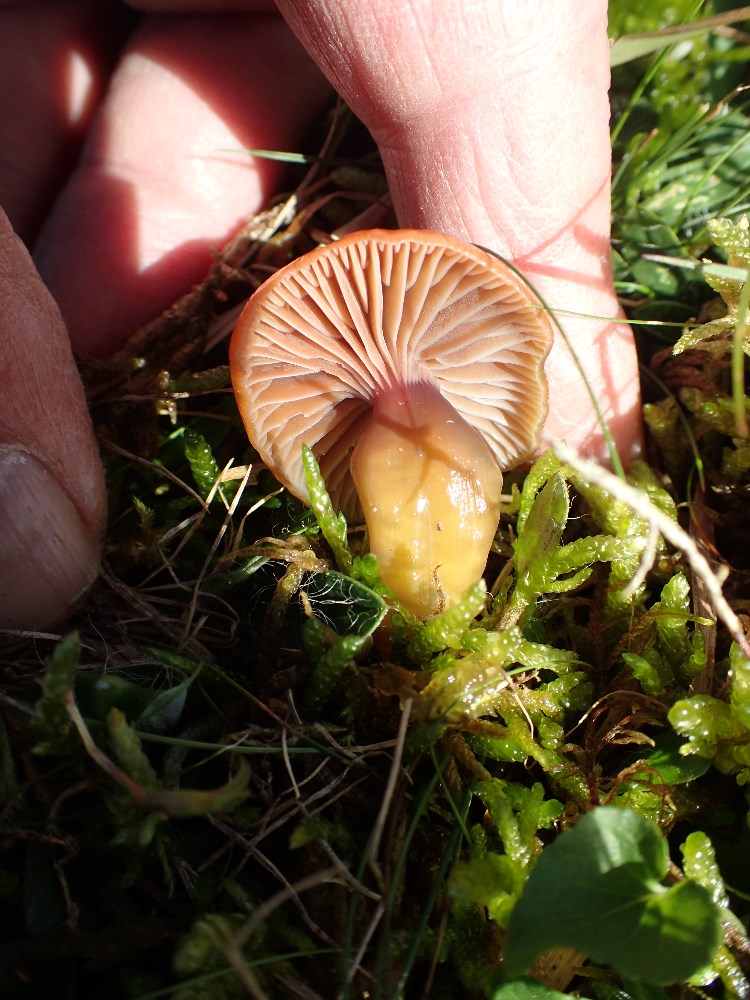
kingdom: Fungi
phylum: Basidiomycota
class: Agaricomycetes
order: Agaricales
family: Hygrophoraceae
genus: Gliophorus
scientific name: Gliophorus laetus
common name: brusk-vokshat
